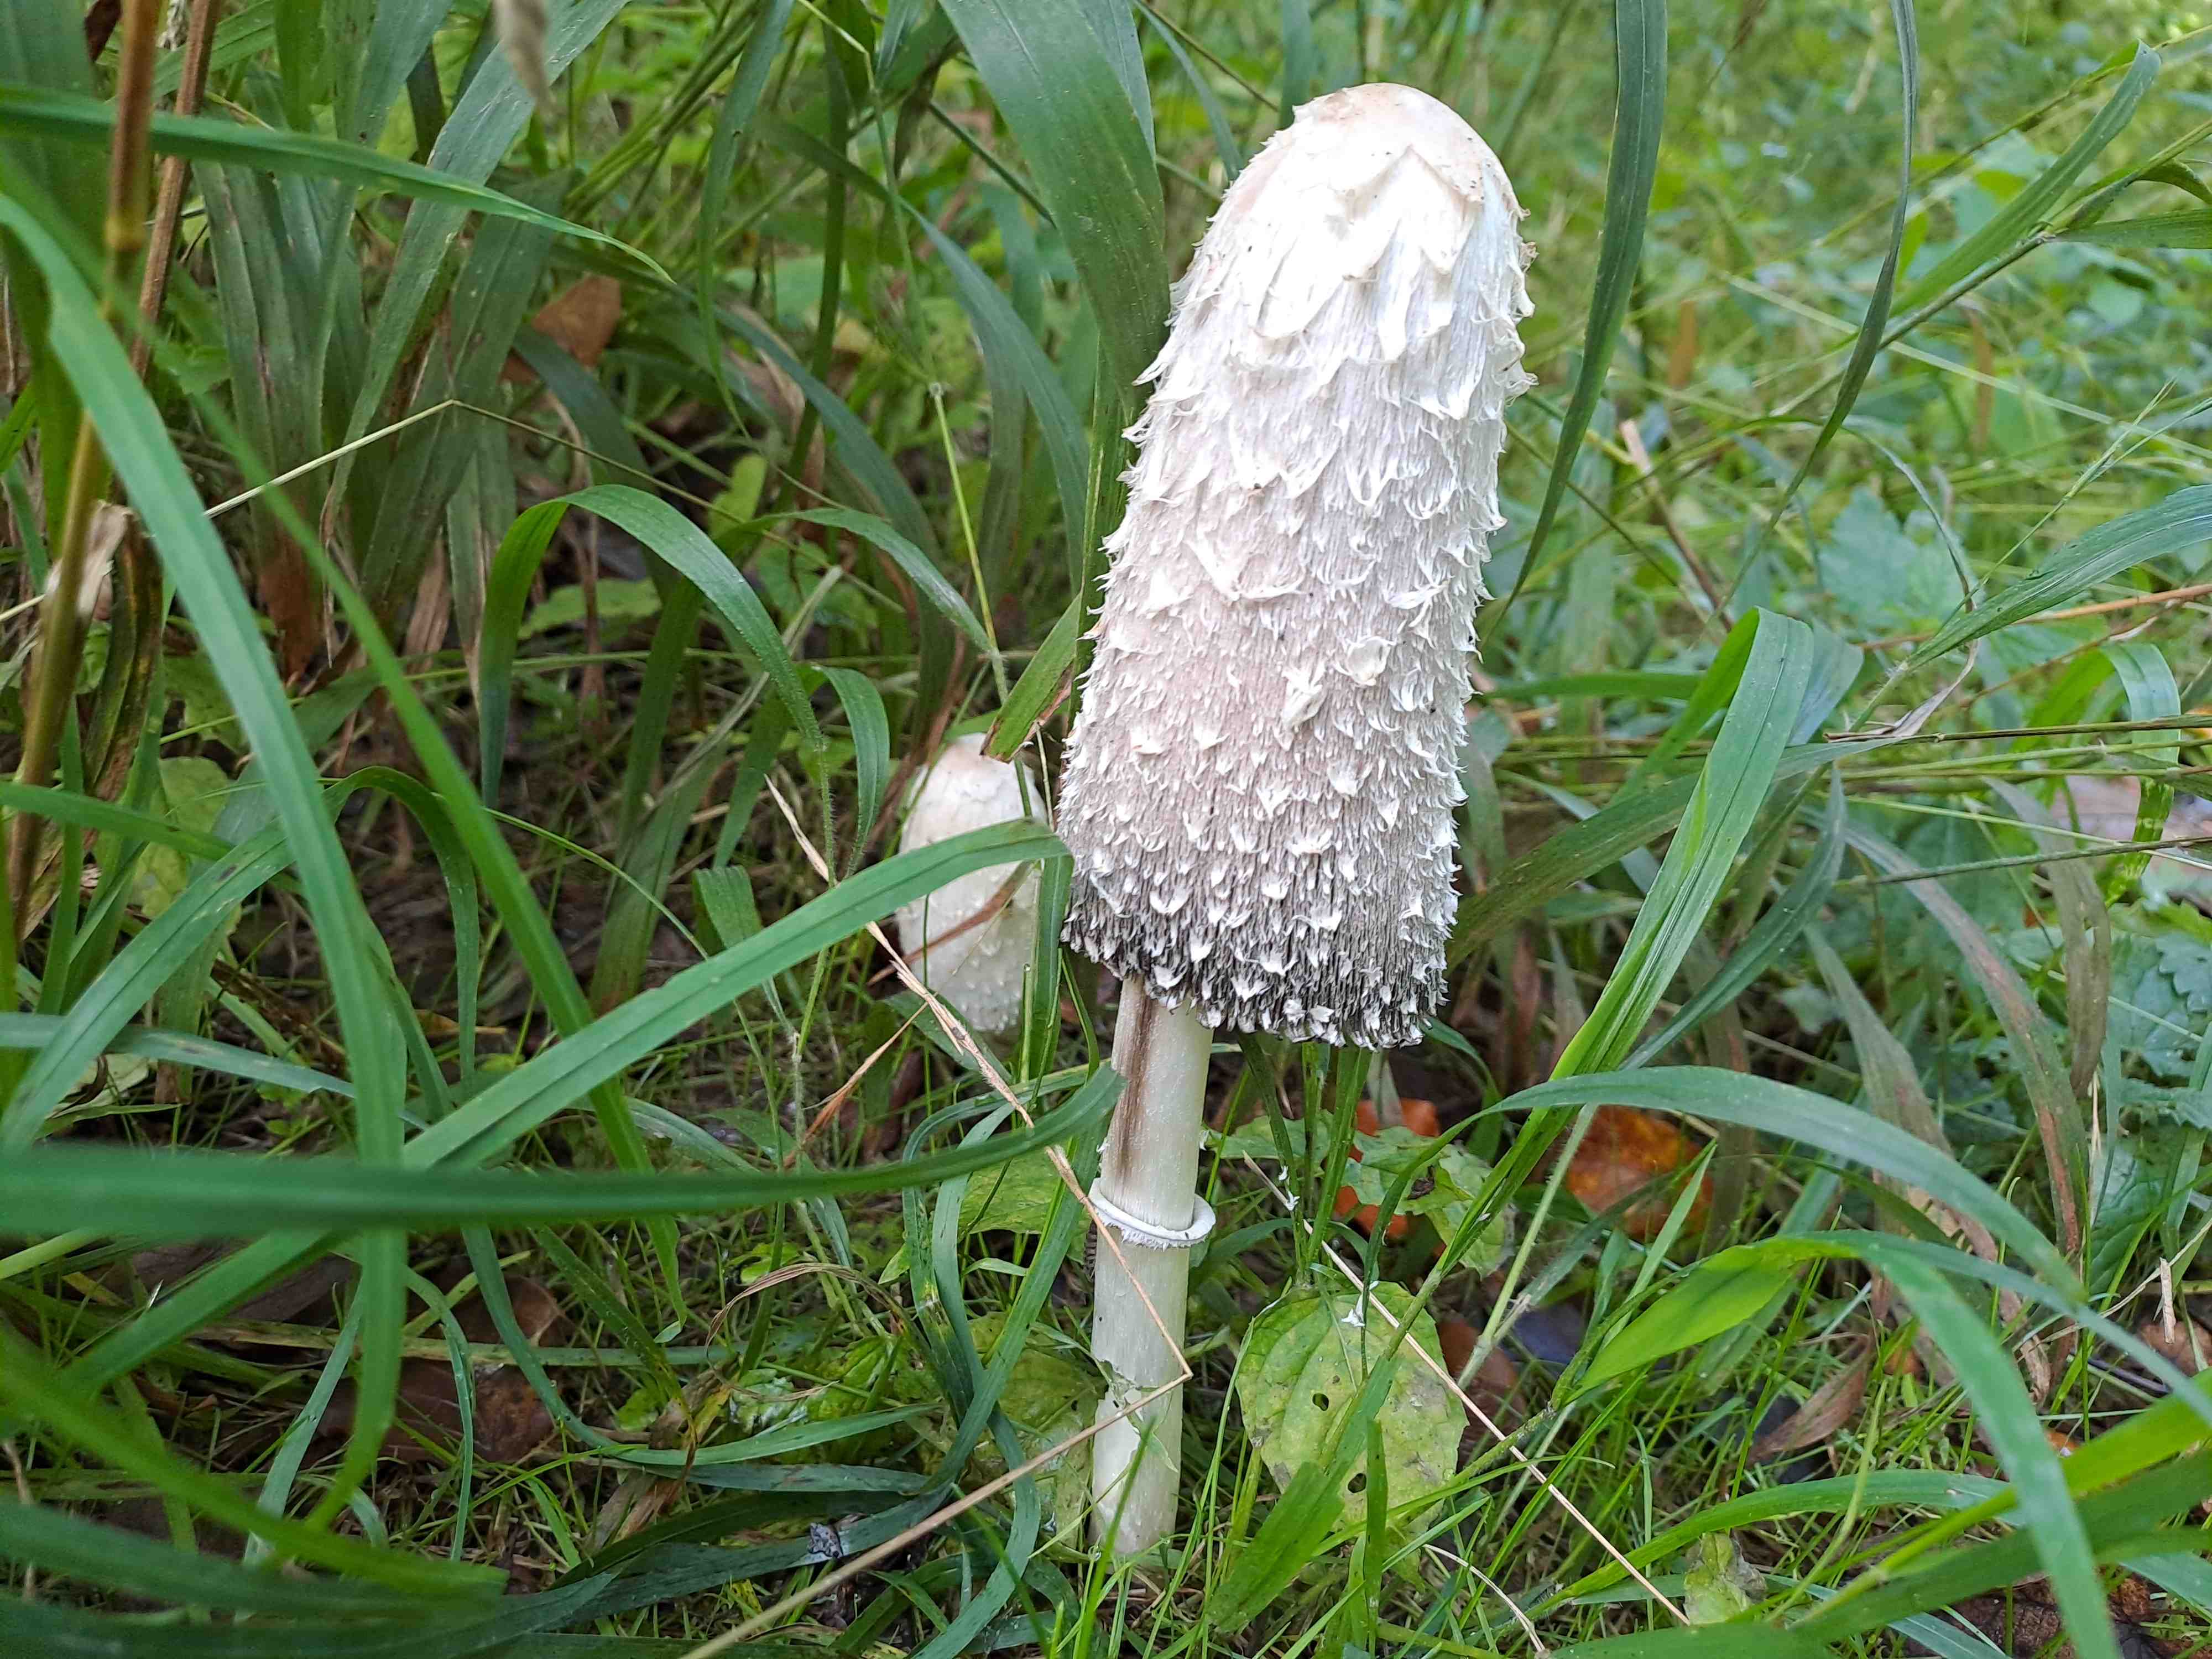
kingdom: Fungi
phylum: Basidiomycota
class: Agaricomycetes
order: Agaricales
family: Agaricaceae
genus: Coprinus
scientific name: Coprinus comatus
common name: stor parykhat
